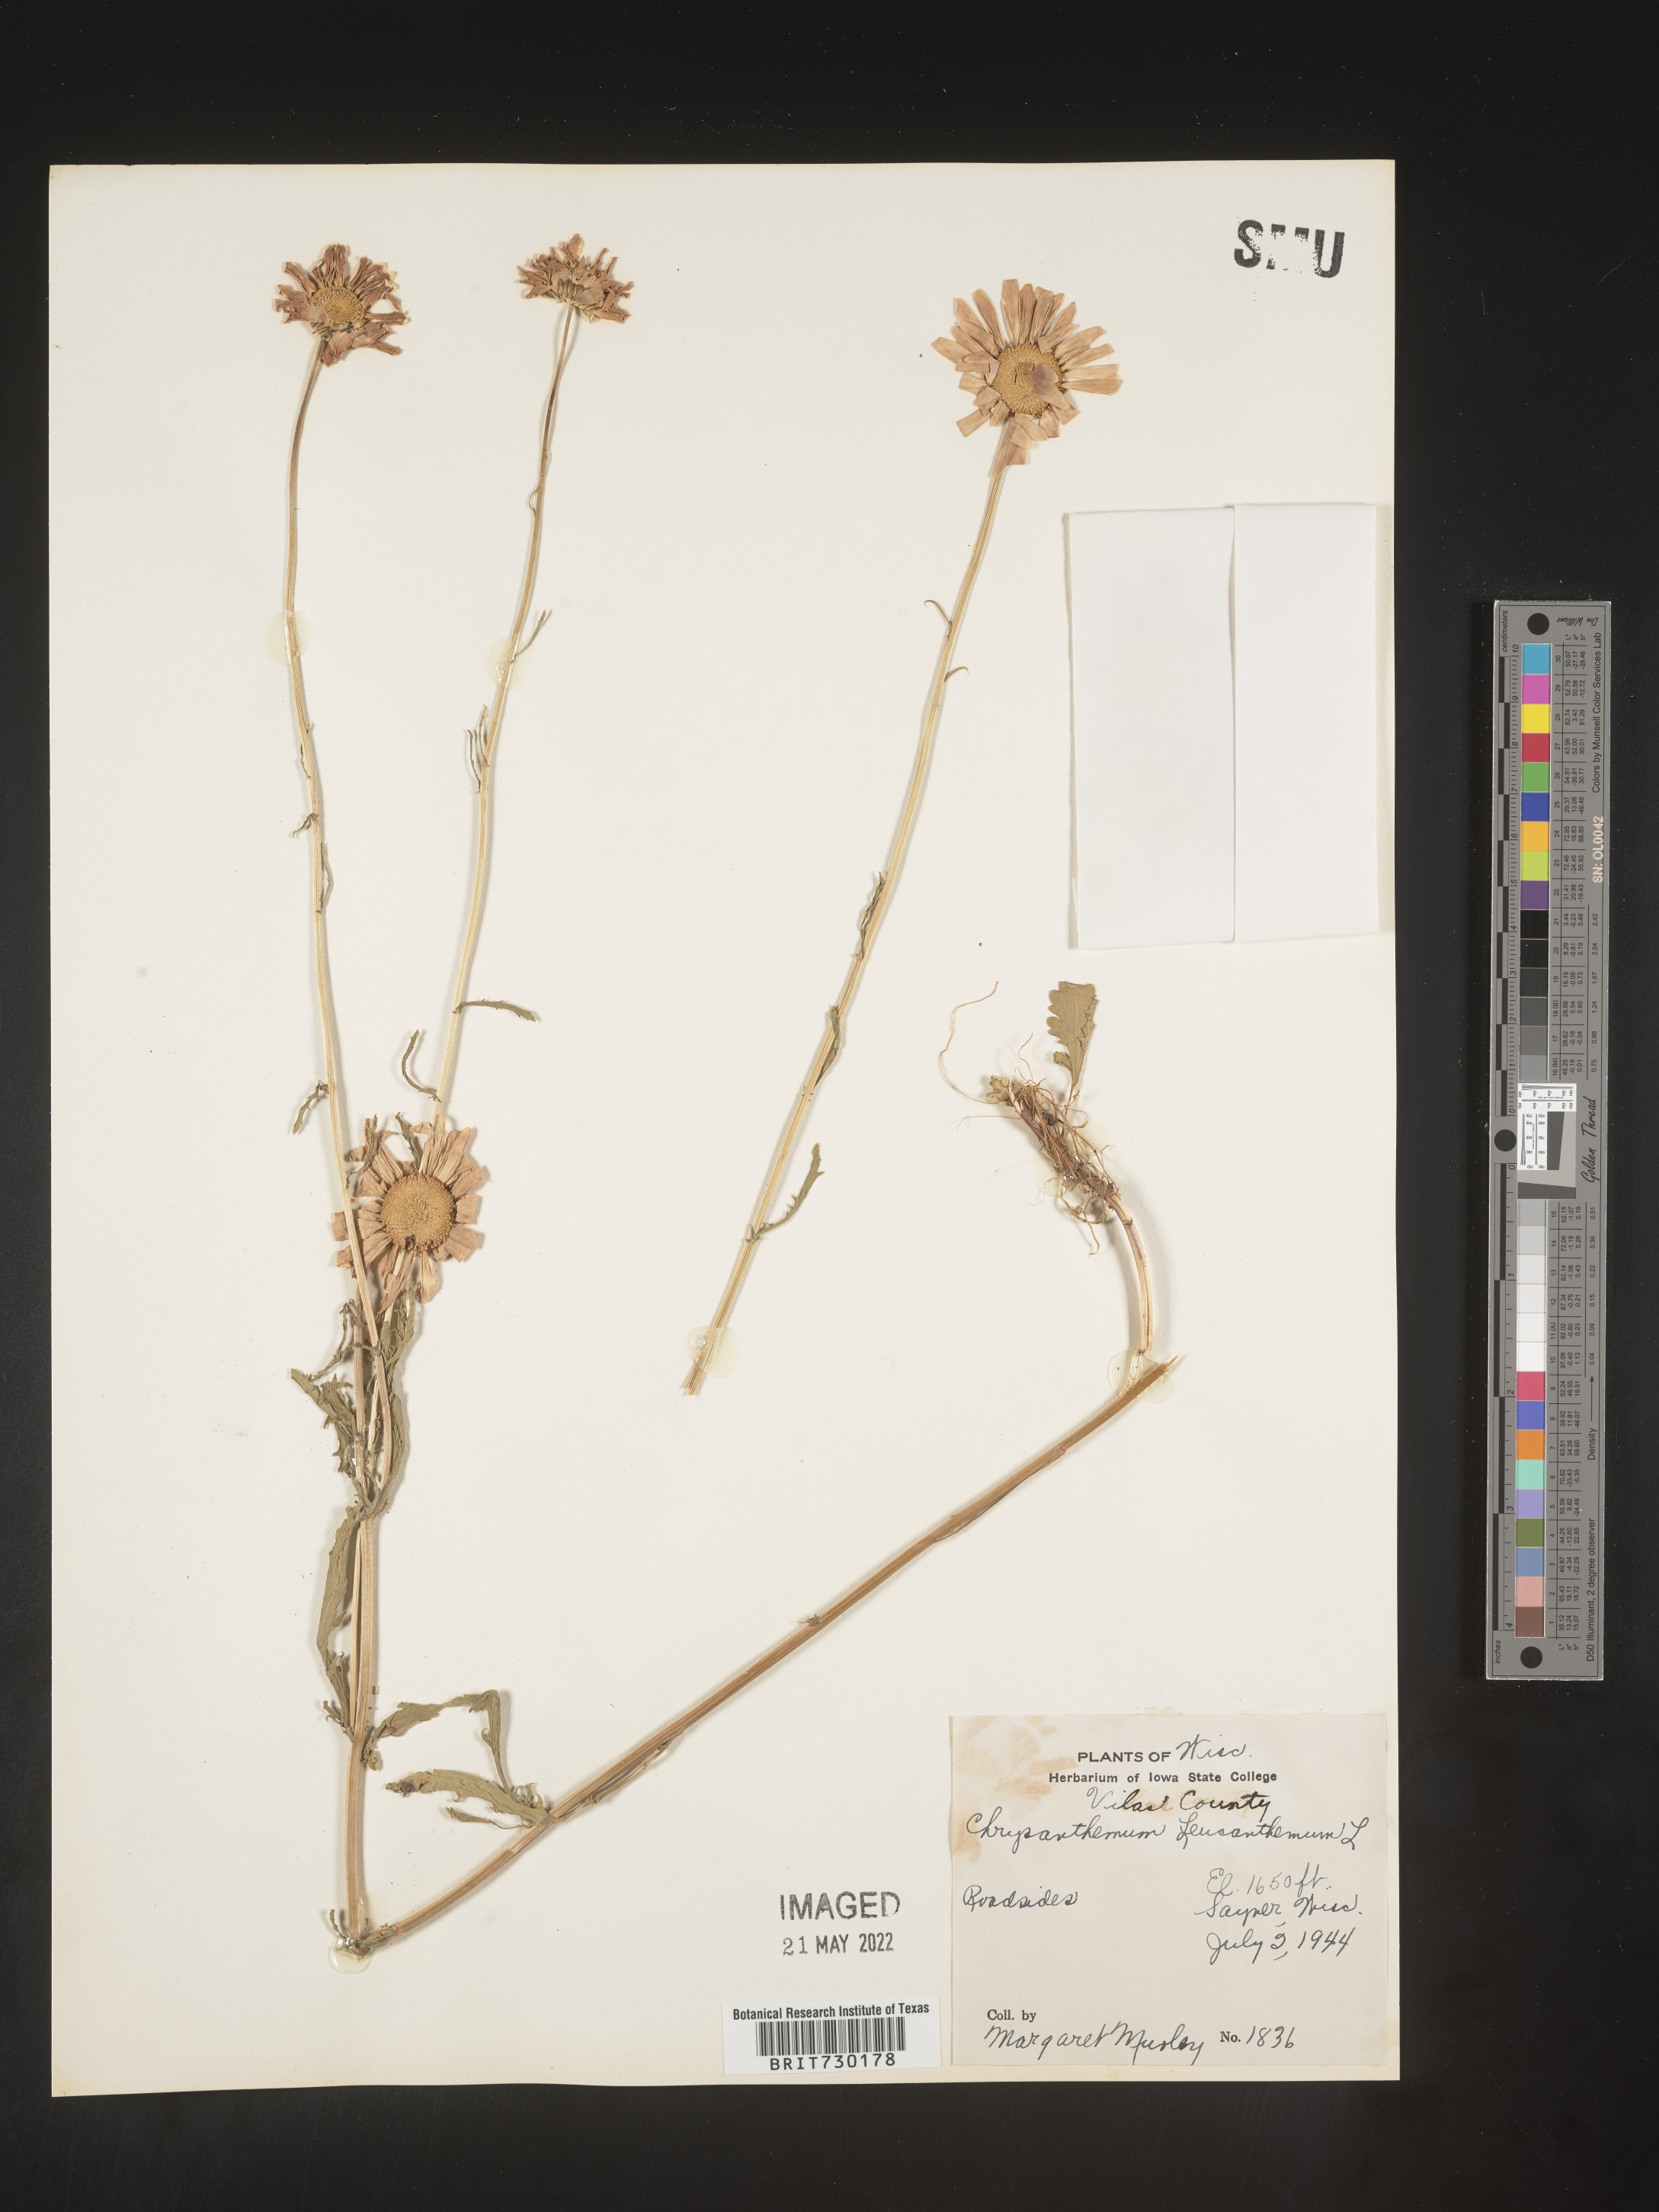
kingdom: Plantae
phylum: Tracheophyta
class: Magnoliopsida
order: Asterales
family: Asteraceae
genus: Leucanthemum
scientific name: Leucanthemum vulgare
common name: Oxeye daisy
